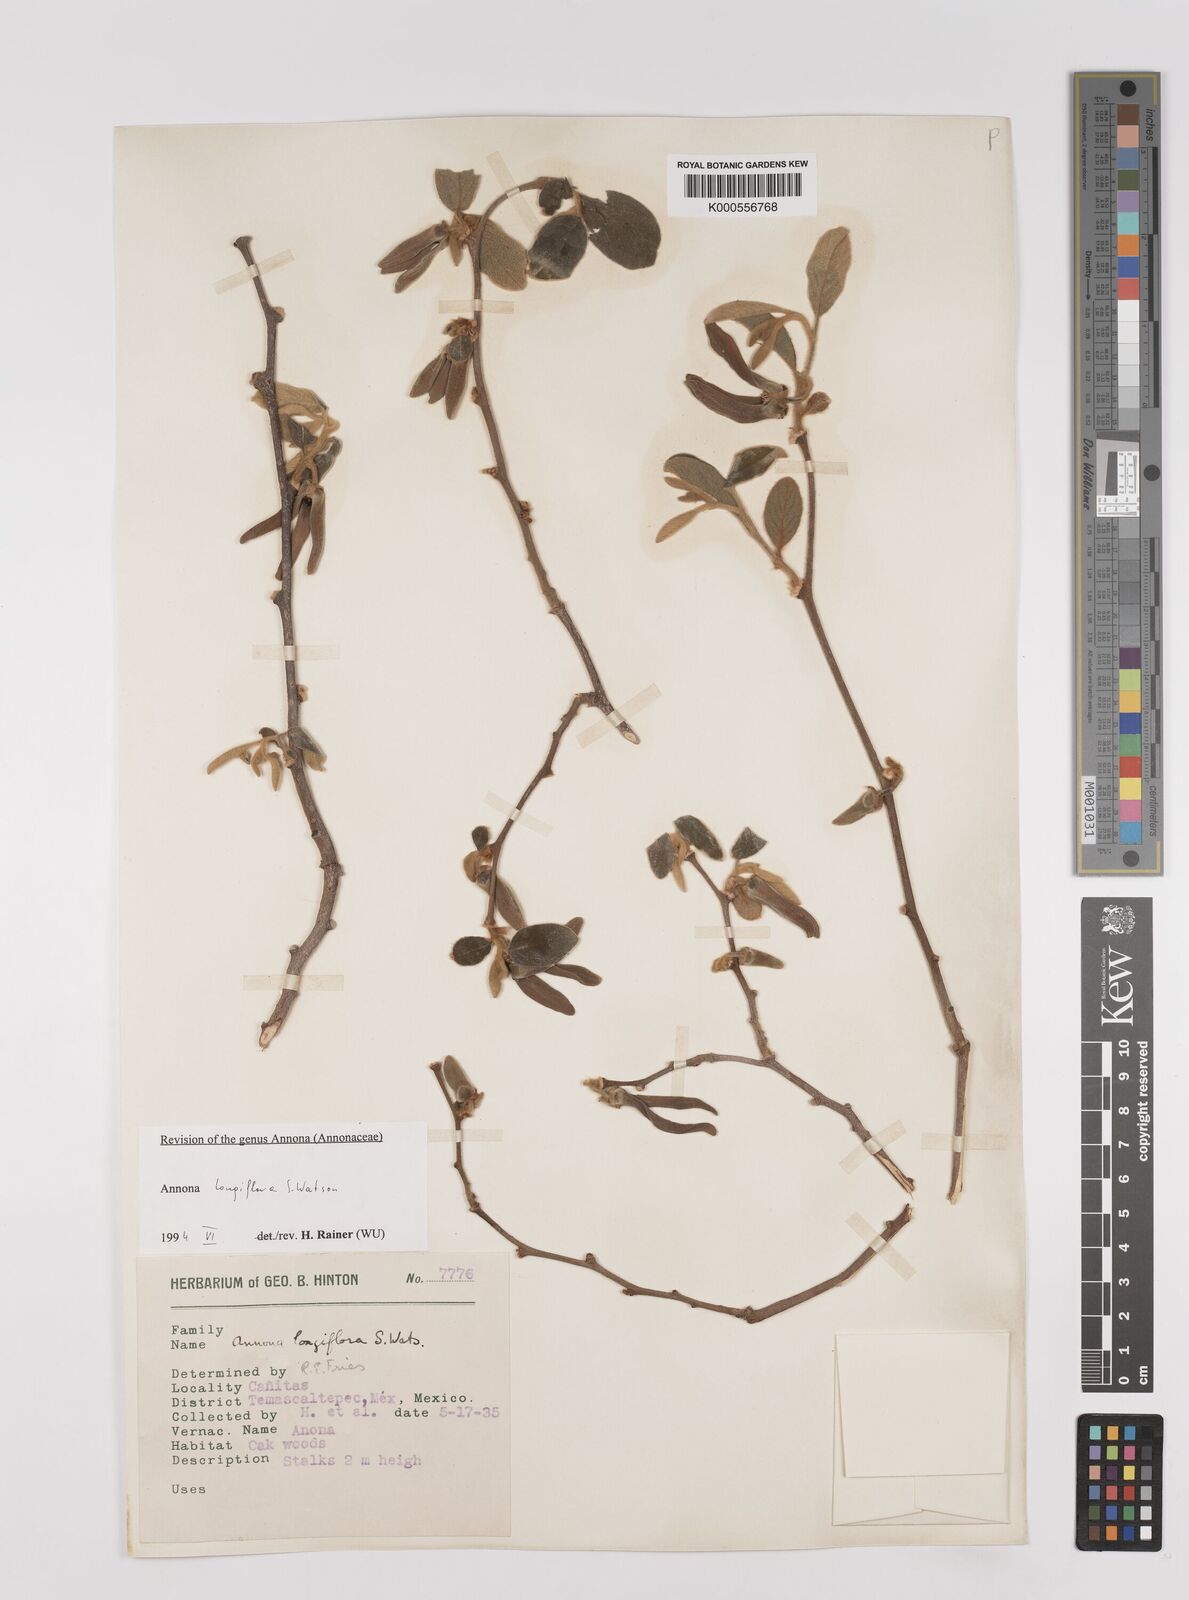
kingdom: Plantae
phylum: Tracheophyta
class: Magnoliopsida
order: Magnoliales
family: Annonaceae
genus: Annona
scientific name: Annona longiflora
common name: Wild cherimoya of jalisco
